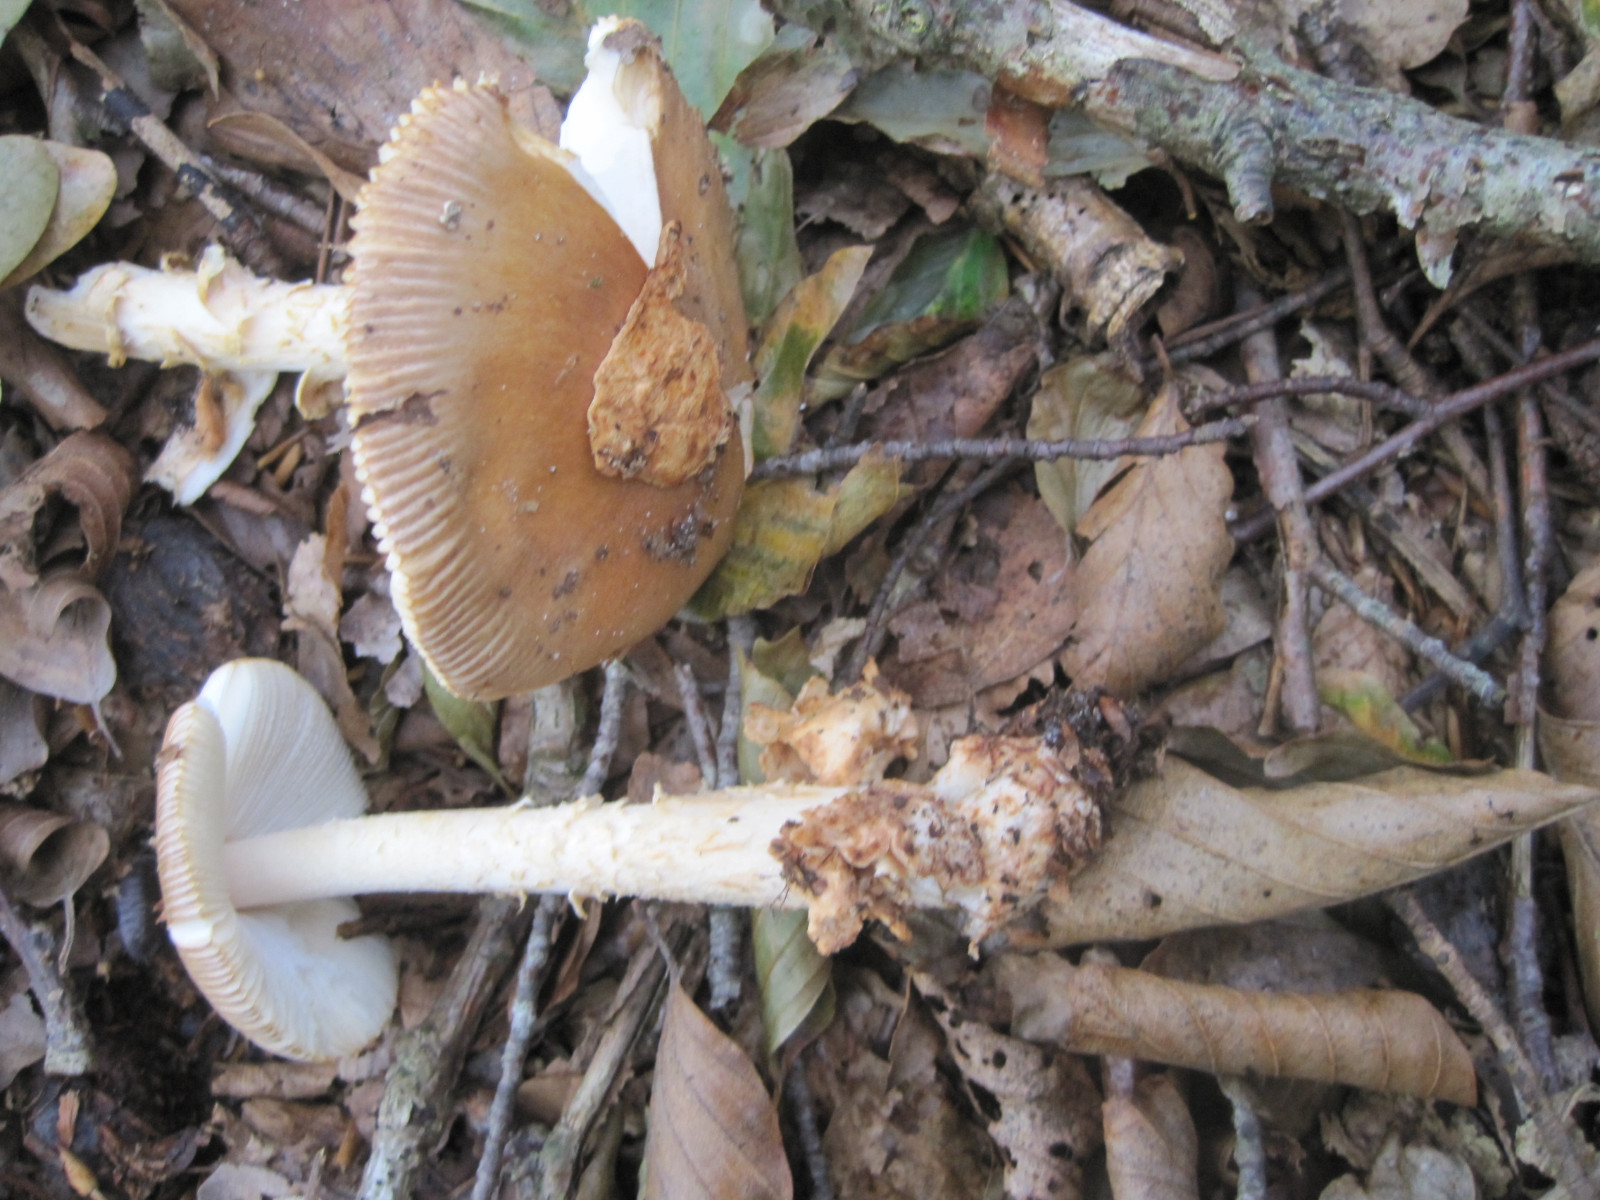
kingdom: Fungi
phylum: Basidiomycota
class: Agaricomycetes
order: Agaricales
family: Amanitaceae
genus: Amanita
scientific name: Amanita fulva
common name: brun kam-fluesvamp
